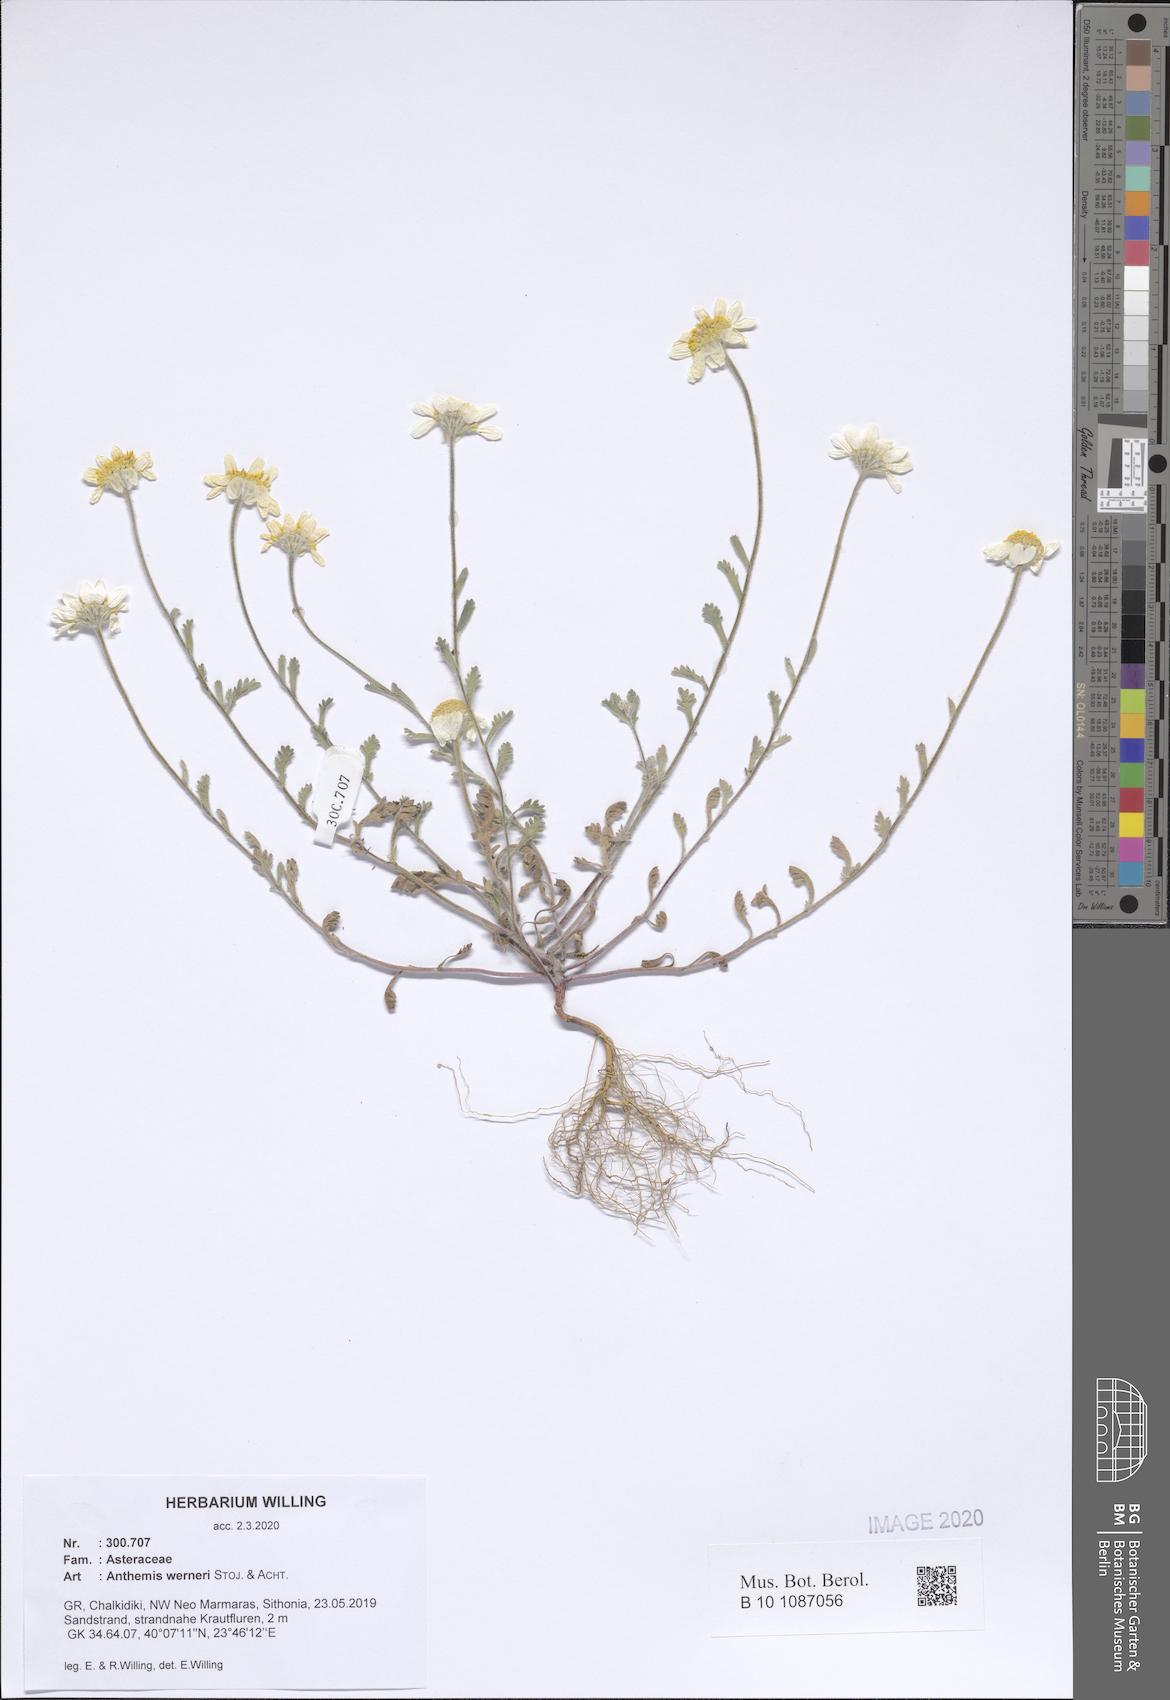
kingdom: Plantae
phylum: Tracheophyta
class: Magnoliopsida
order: Asterales
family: Asteraceae
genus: Anthemis
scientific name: Anthemis werneri
